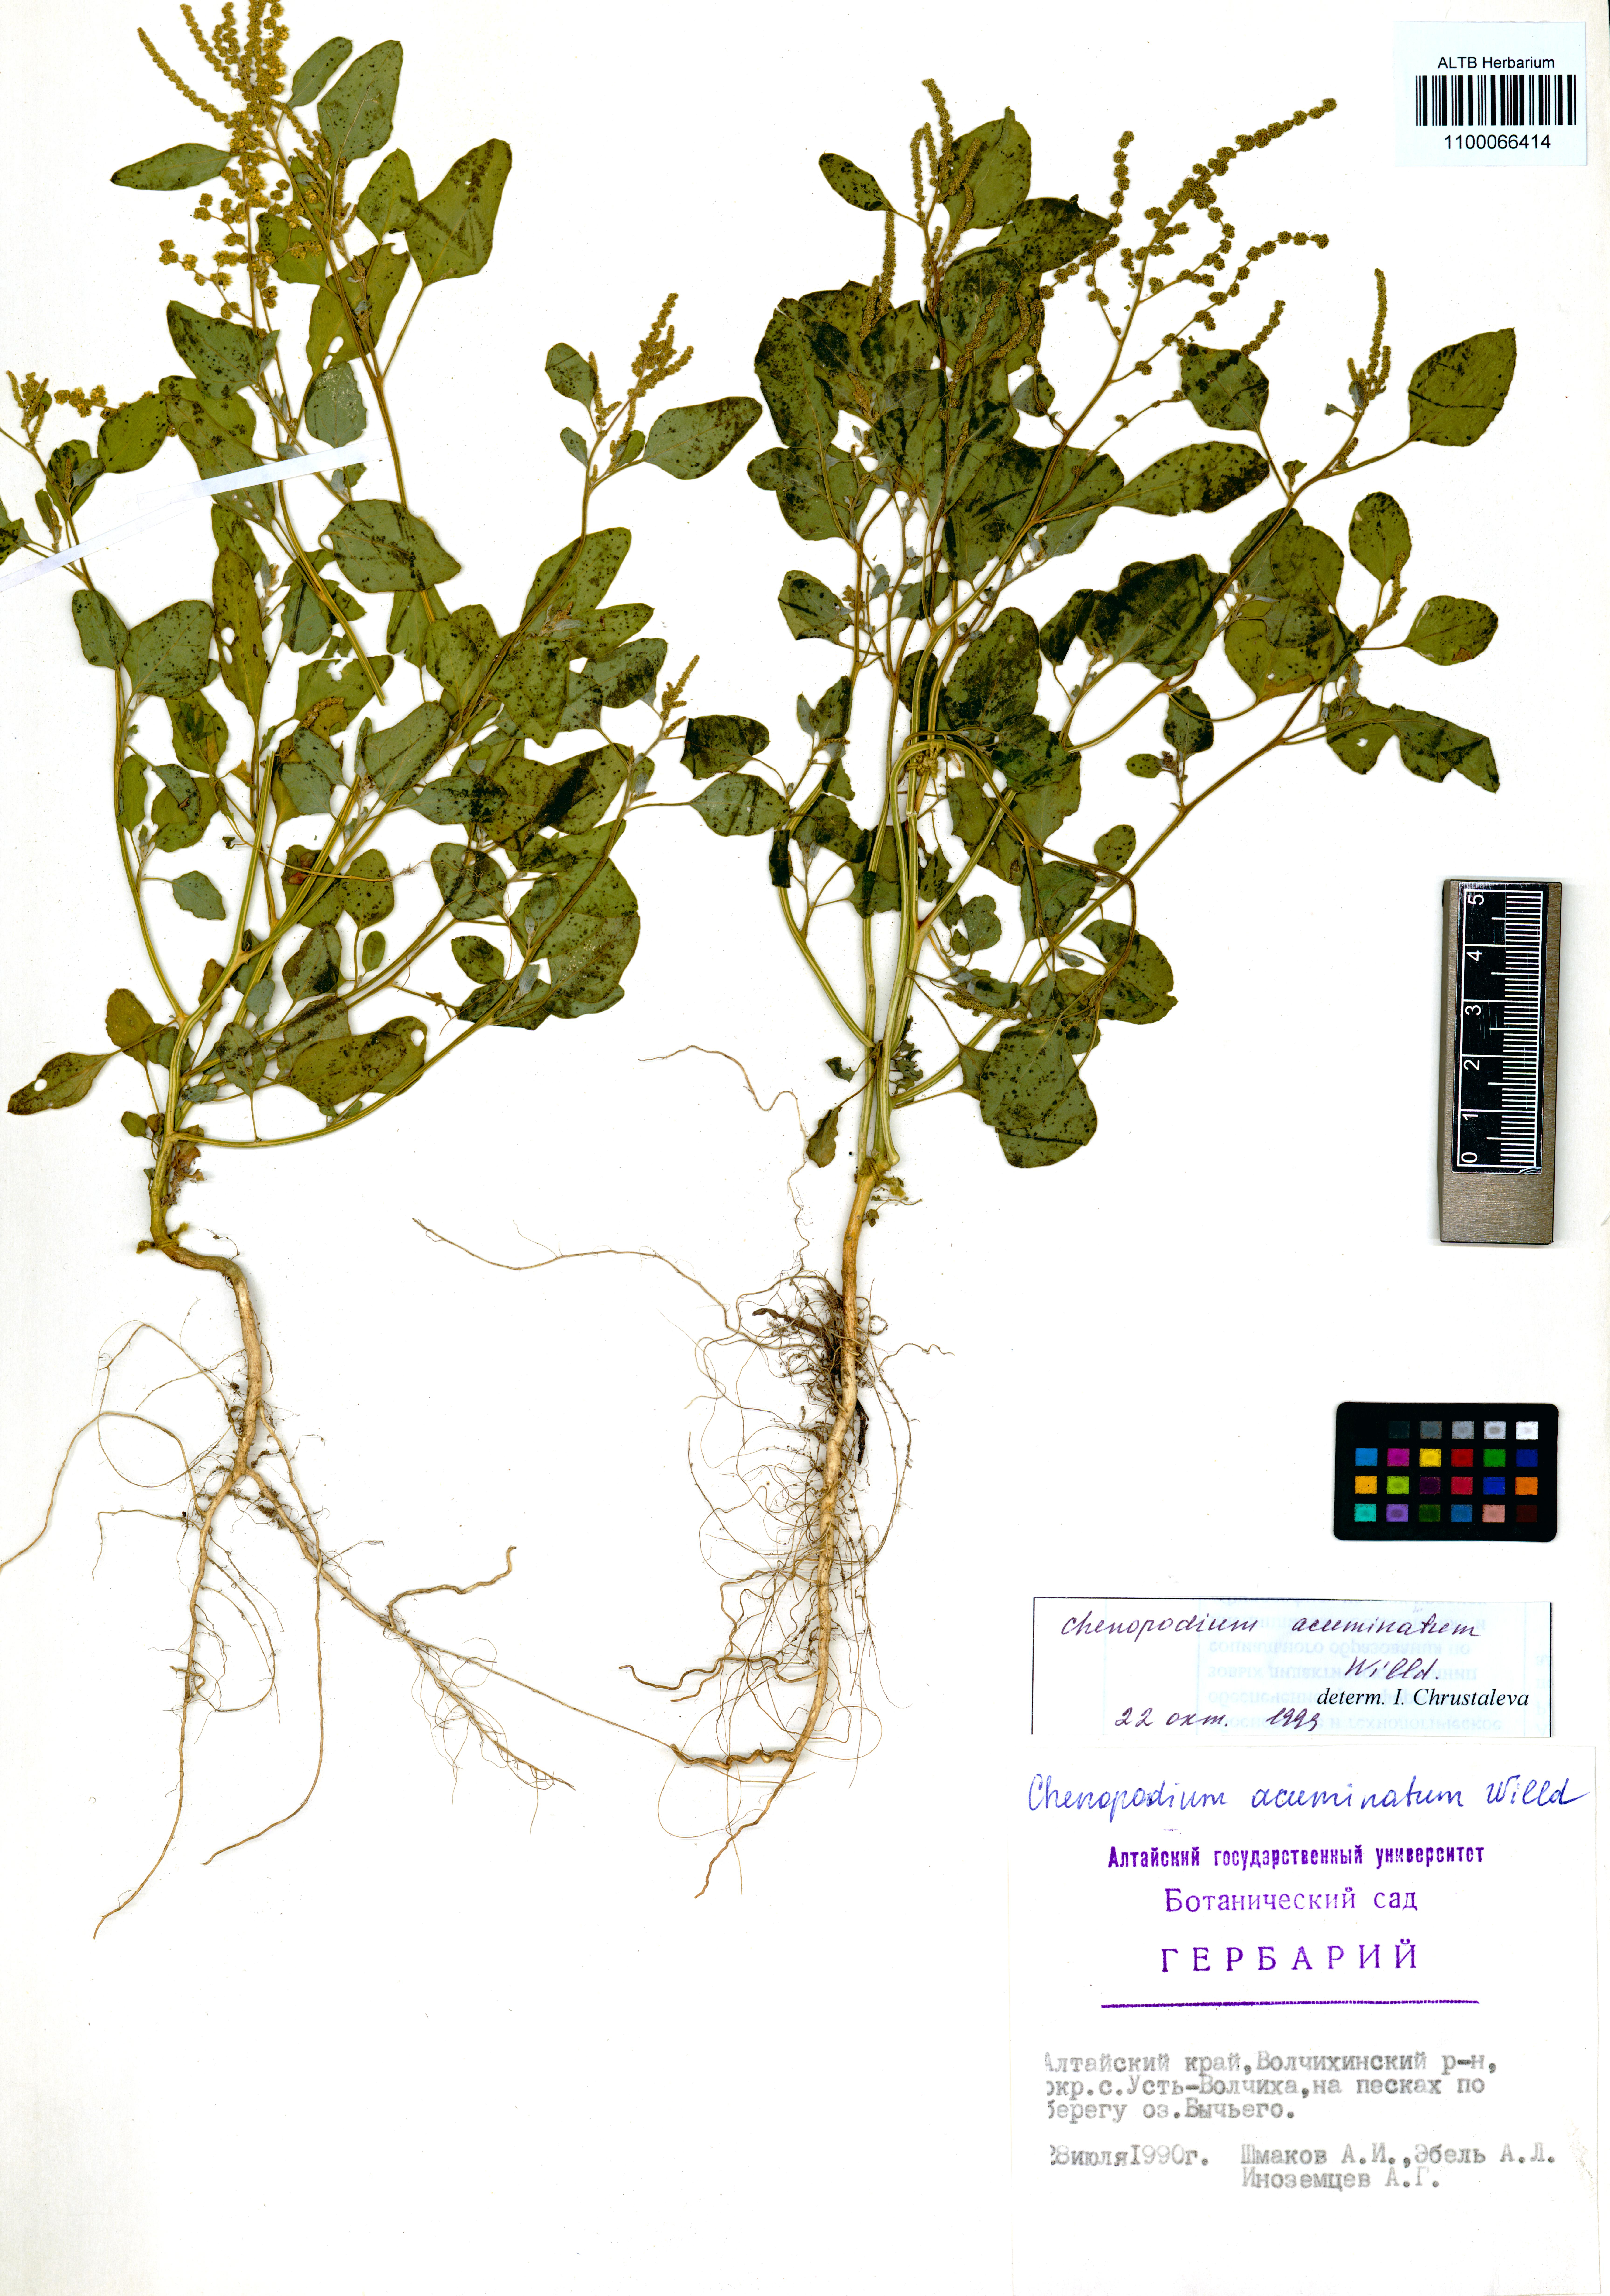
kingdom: Plantae
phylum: Tracheophyta
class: Magnoliopsida
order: Caryophyllales
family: Amaranthaceae
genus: Chenopodium
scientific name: Chenopodium acuminatum
